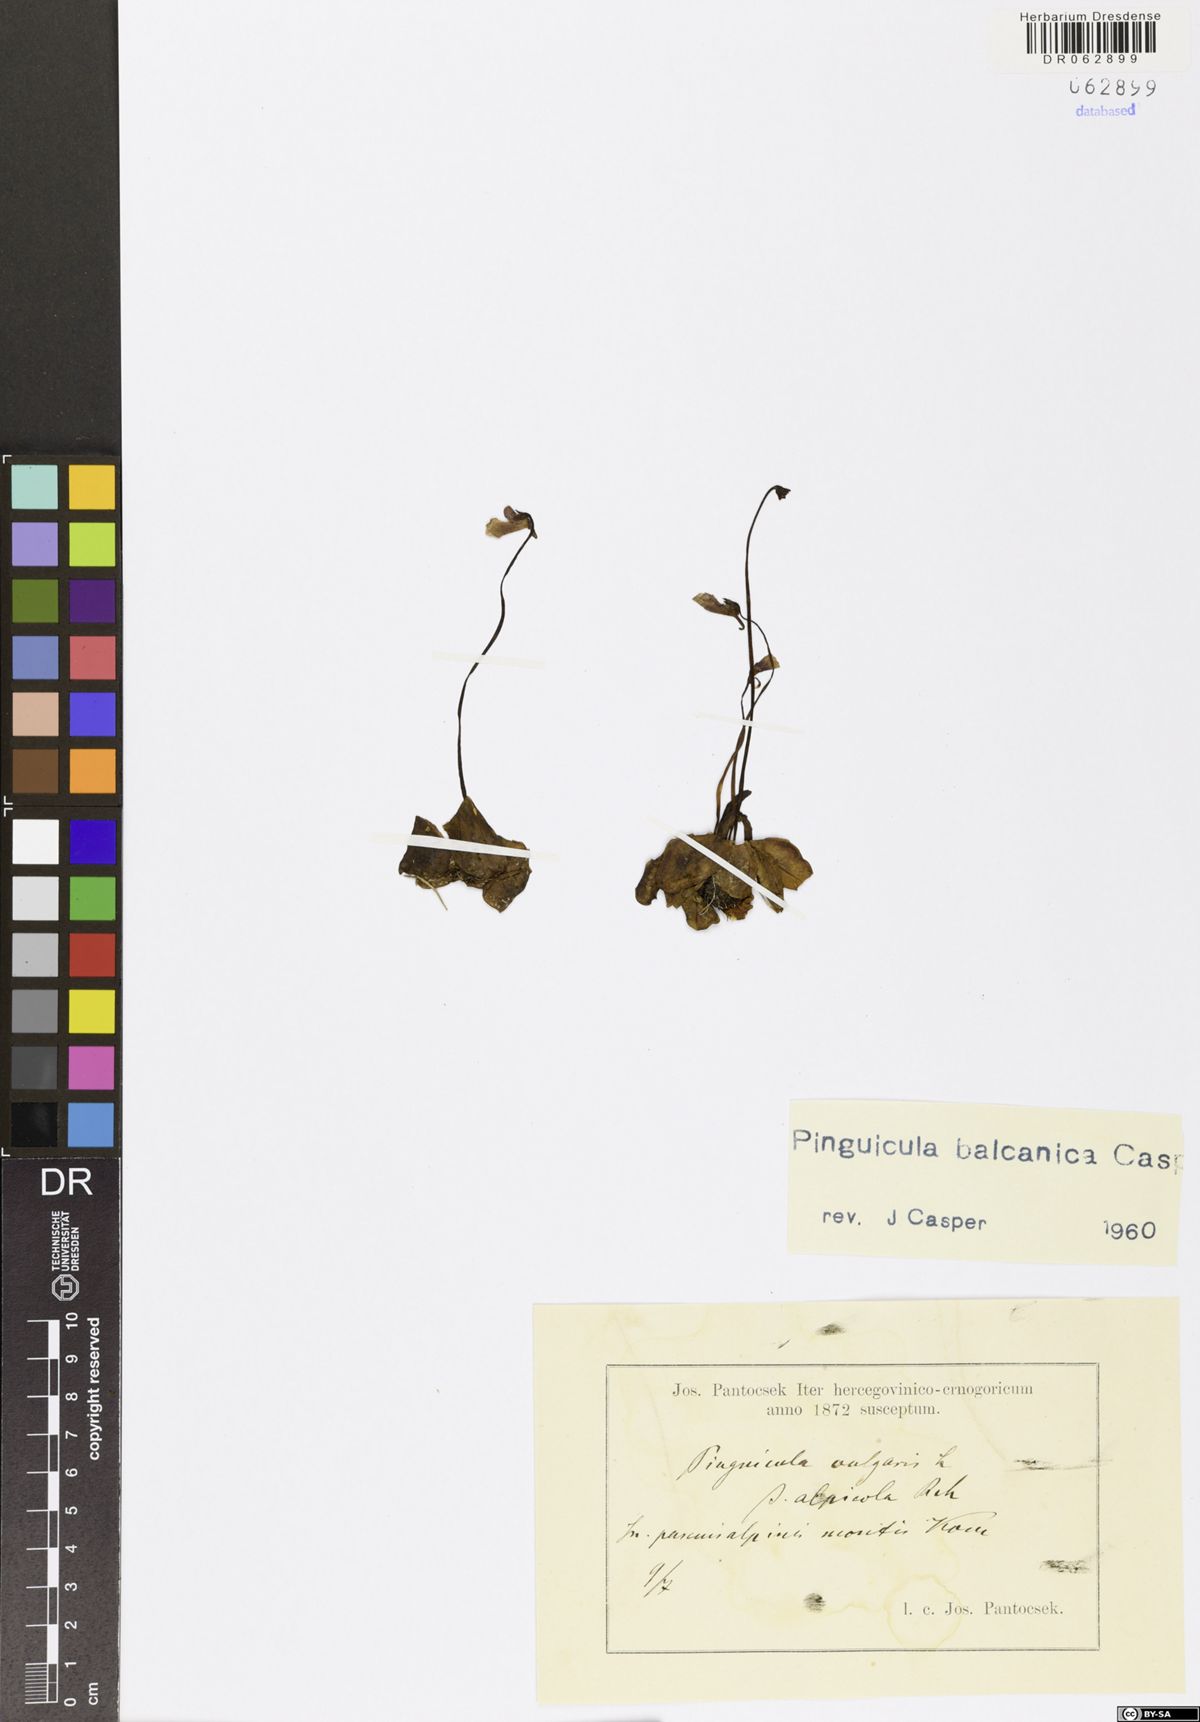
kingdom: Plantae
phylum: Tracheophyta
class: Magnoliopsida
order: Lamiales
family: Lentibulariaceae
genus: Pinguicula
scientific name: Pinguicula balcanica
